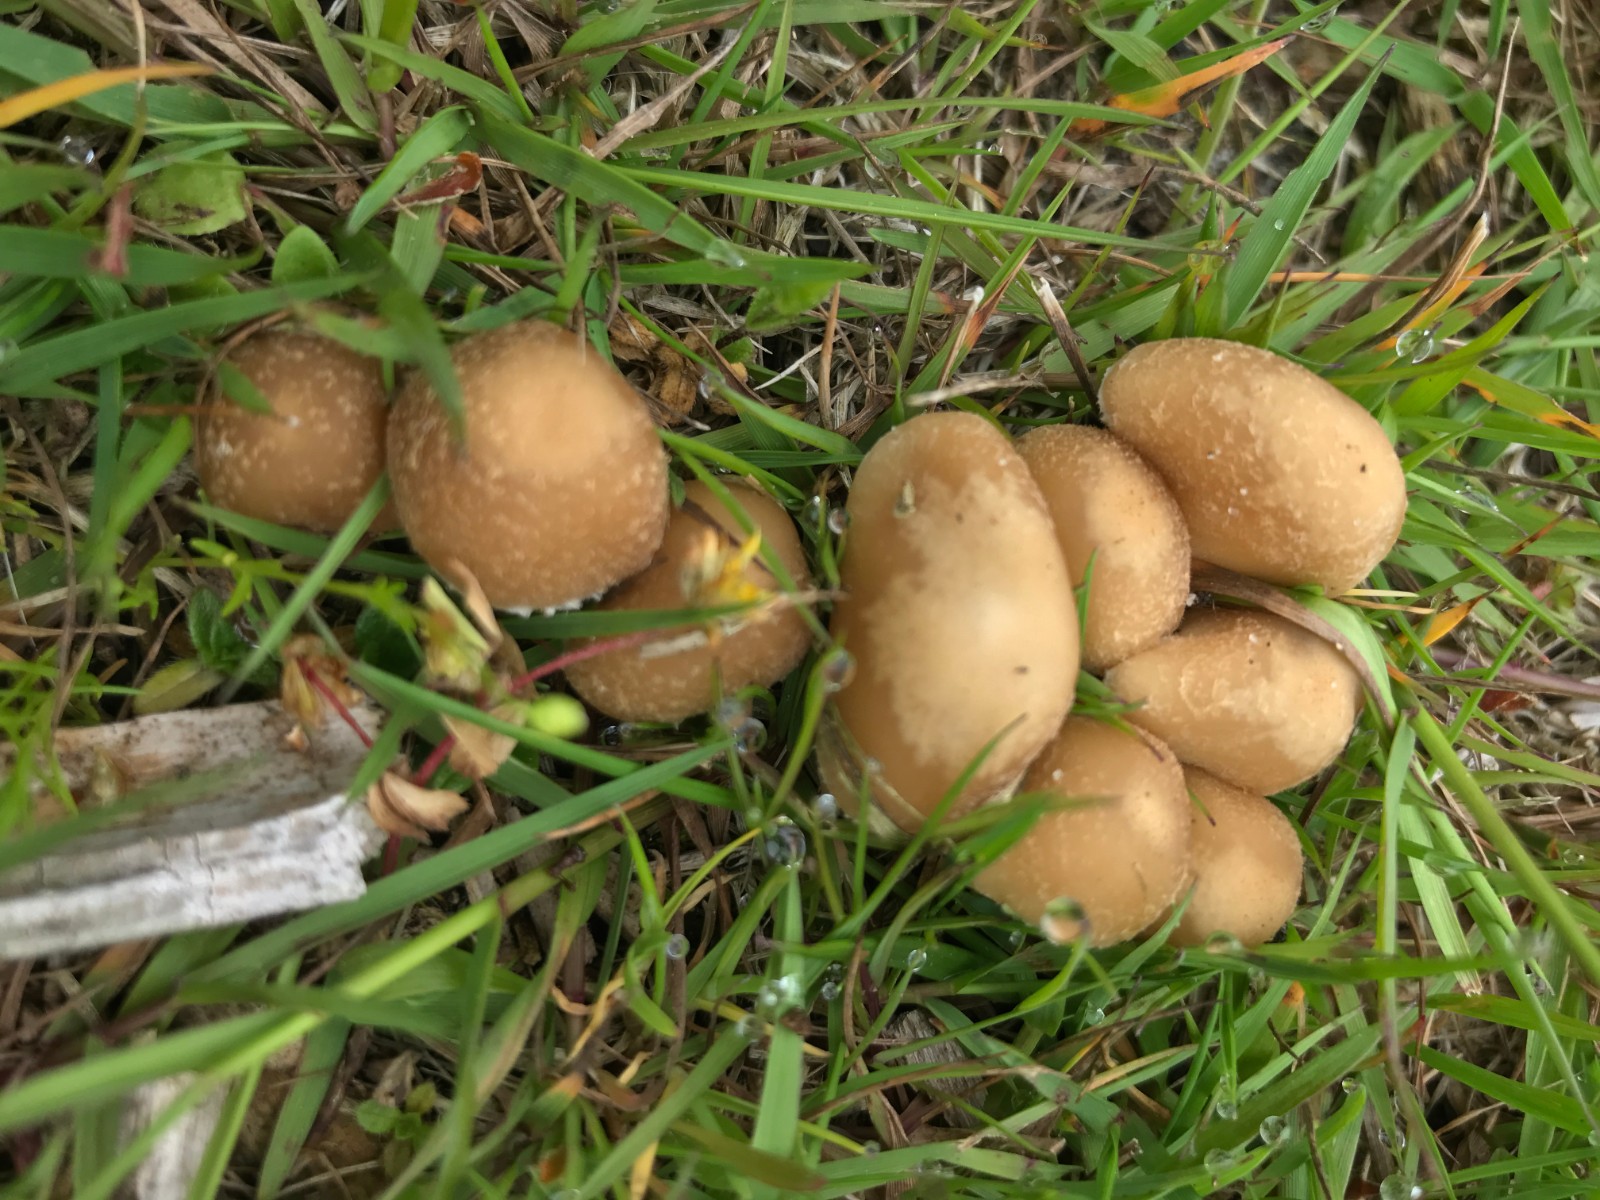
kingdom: Fungi
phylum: Basidiomycota
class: Agaricomycetes
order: Agaricales
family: Psathyrellaceae
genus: Candolleomyces
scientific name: Candolleomyces candolleanus
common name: Candolles mørkhat
